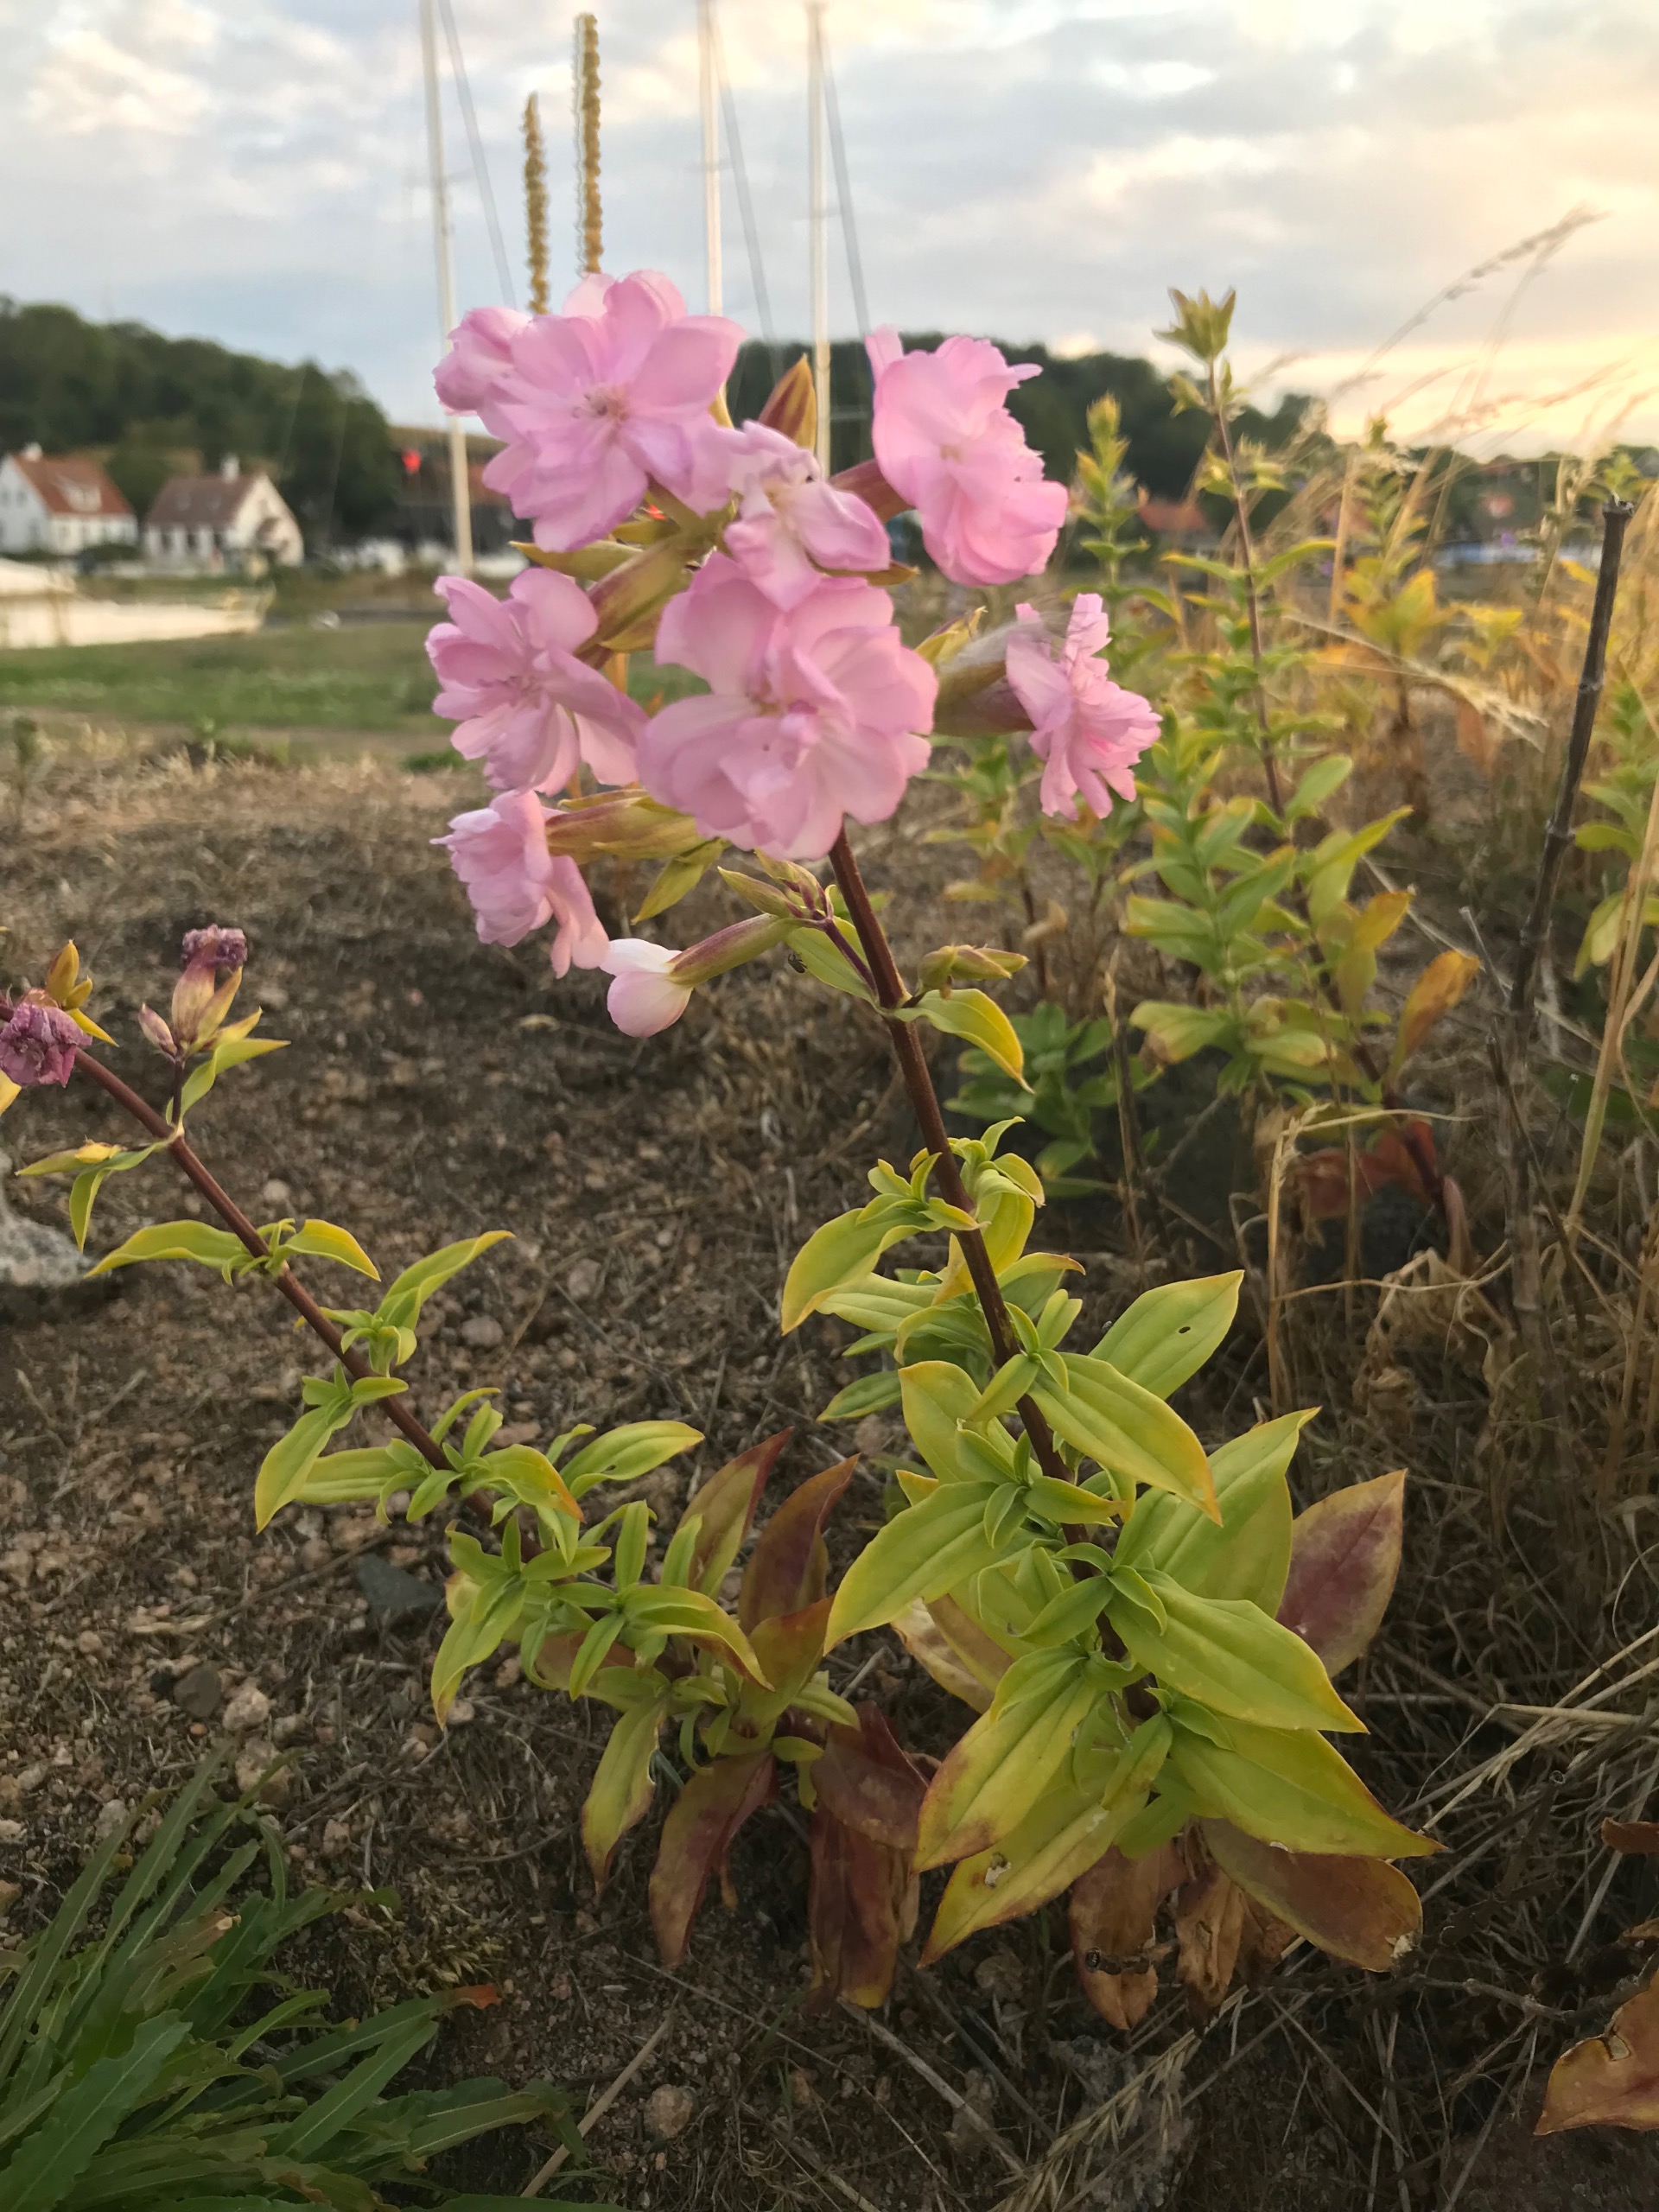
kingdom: Plantae
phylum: Tracheophyta
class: Magnoliopsida
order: Caryophyllales
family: Caryophyllaceae
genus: Saponaria
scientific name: Saponaria officinalis
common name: Sæbeurt
